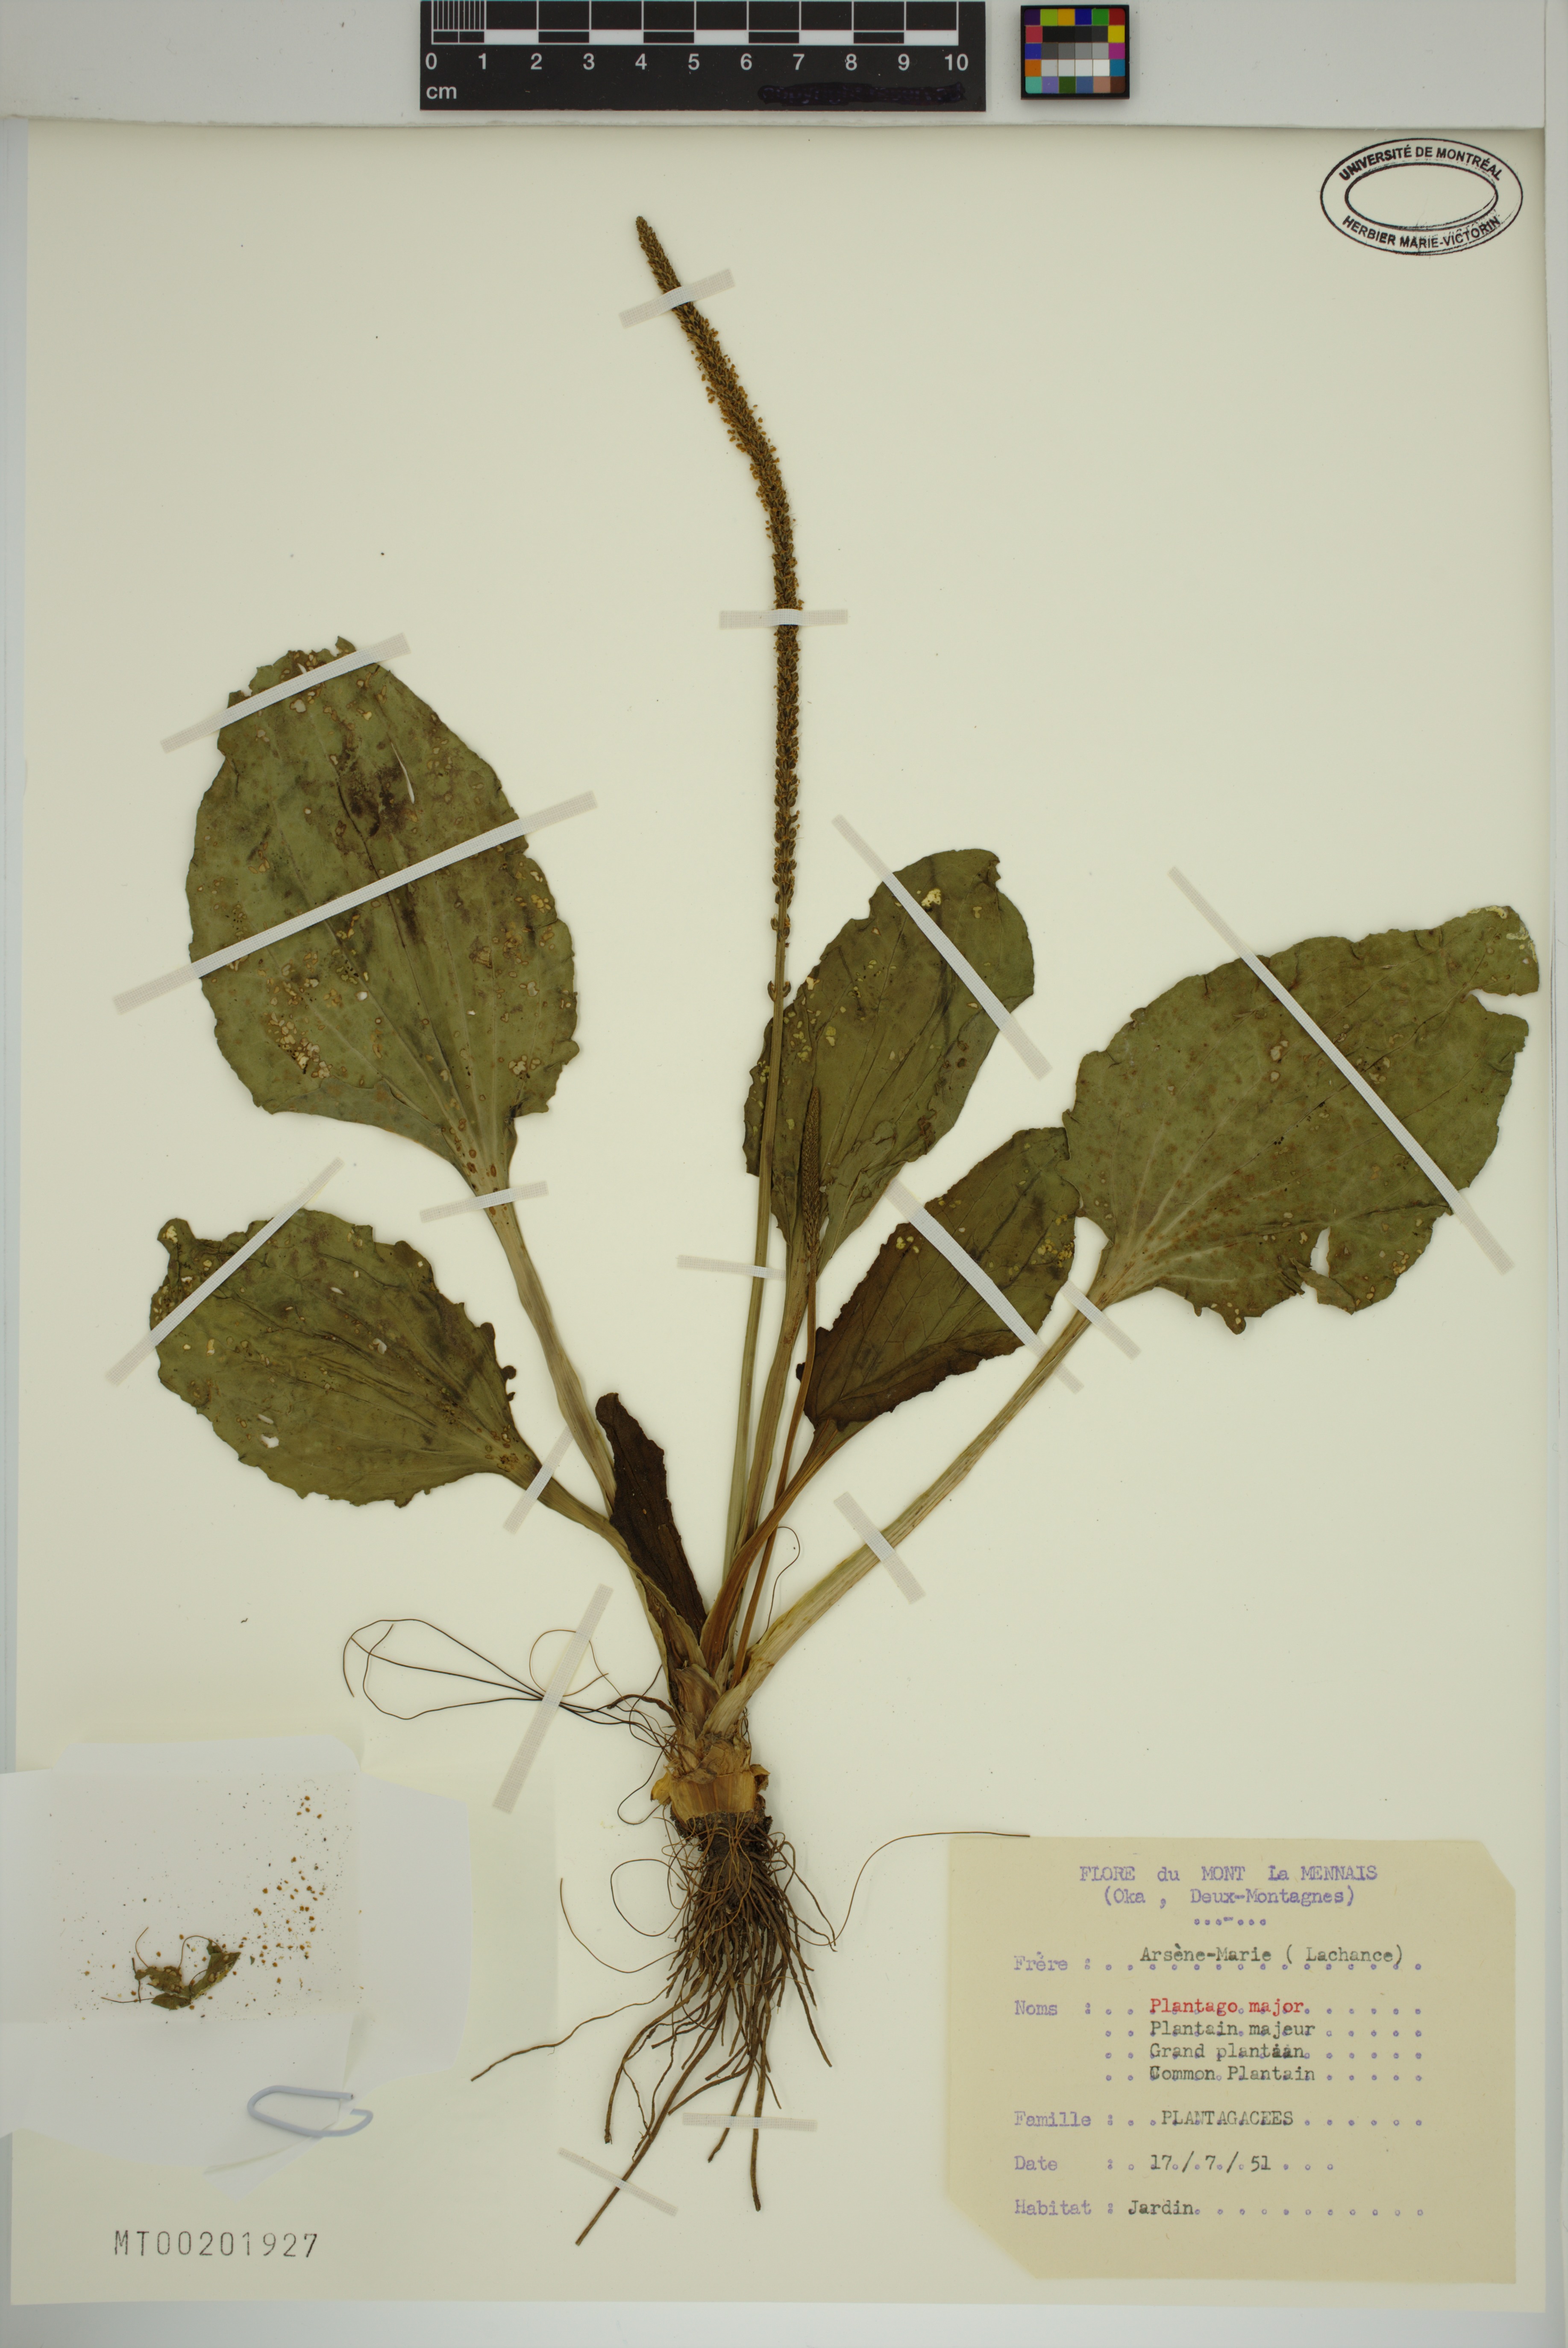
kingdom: Plantae
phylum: Tracheophyta
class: Magnoliopsida
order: Lamiales
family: Plantaginaceae
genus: Plantago
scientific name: Plantago major
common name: Common plantain
